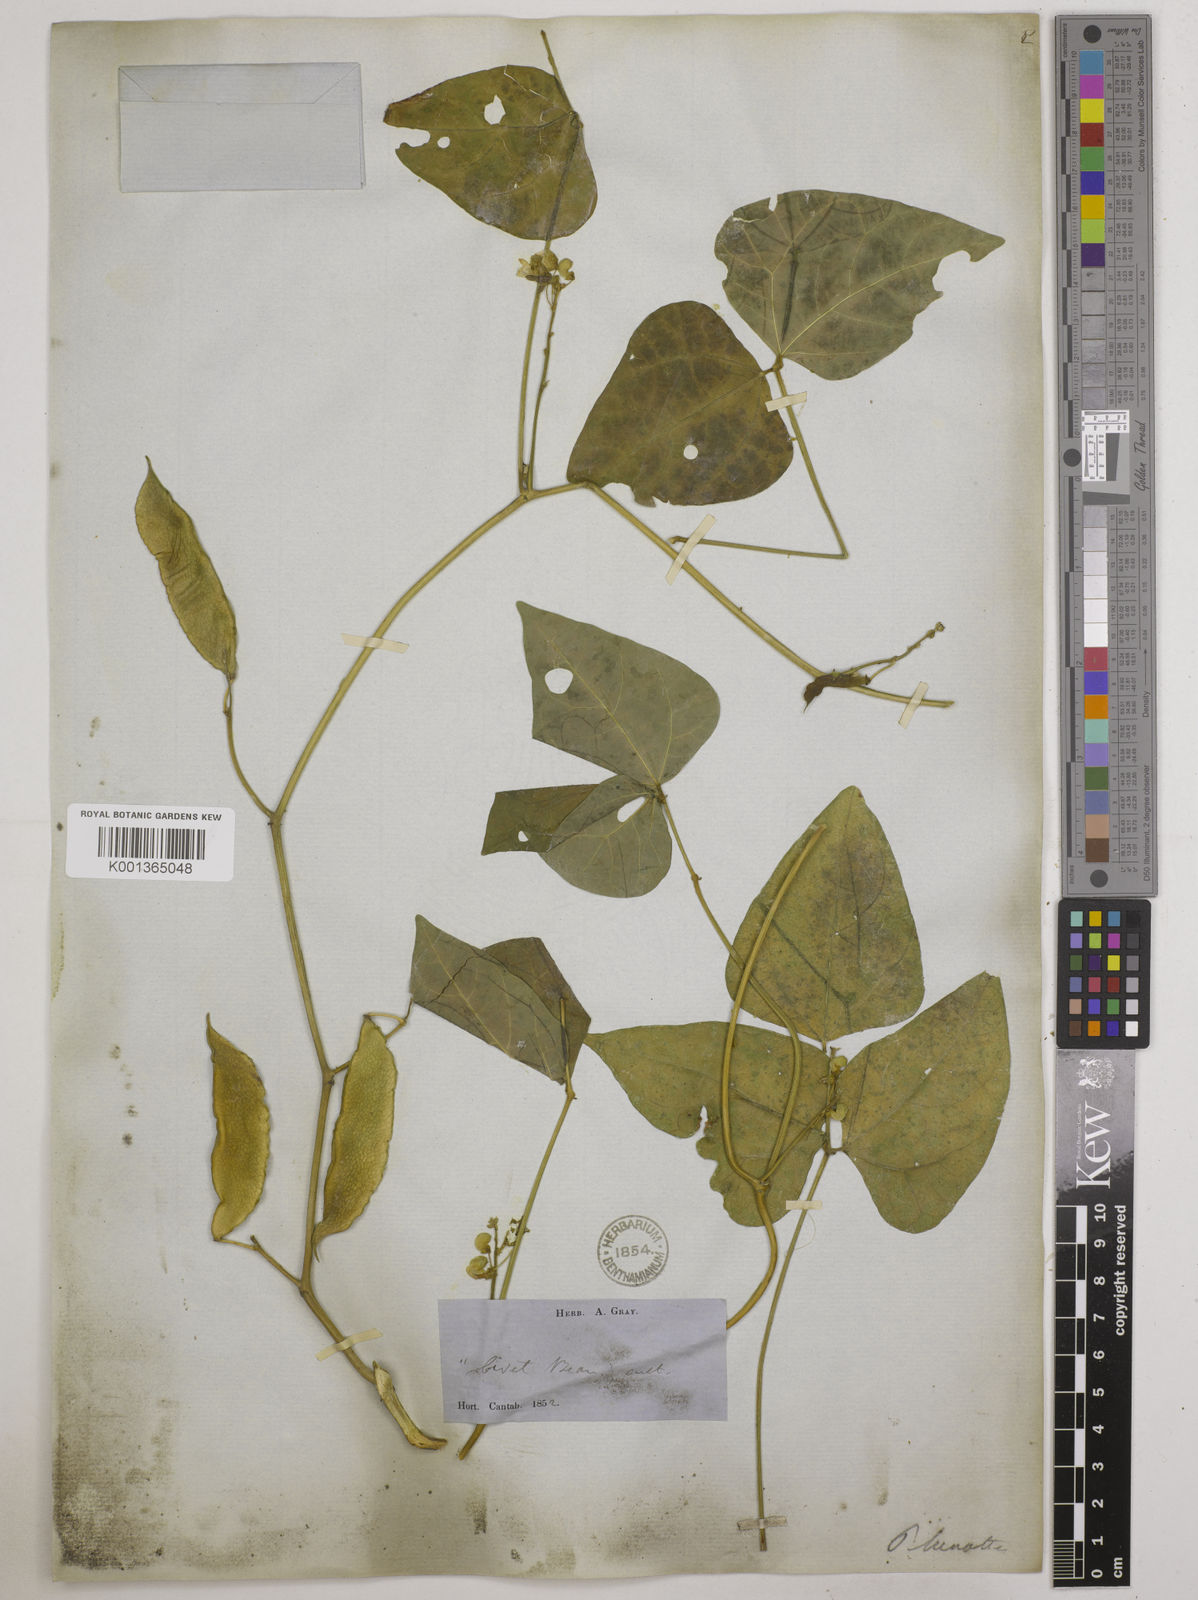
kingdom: Plantae
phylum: Tracheophyta
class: Magnoliopsida
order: Fabales
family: Fabaceae
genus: Phaseolus
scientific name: Phaseolus
